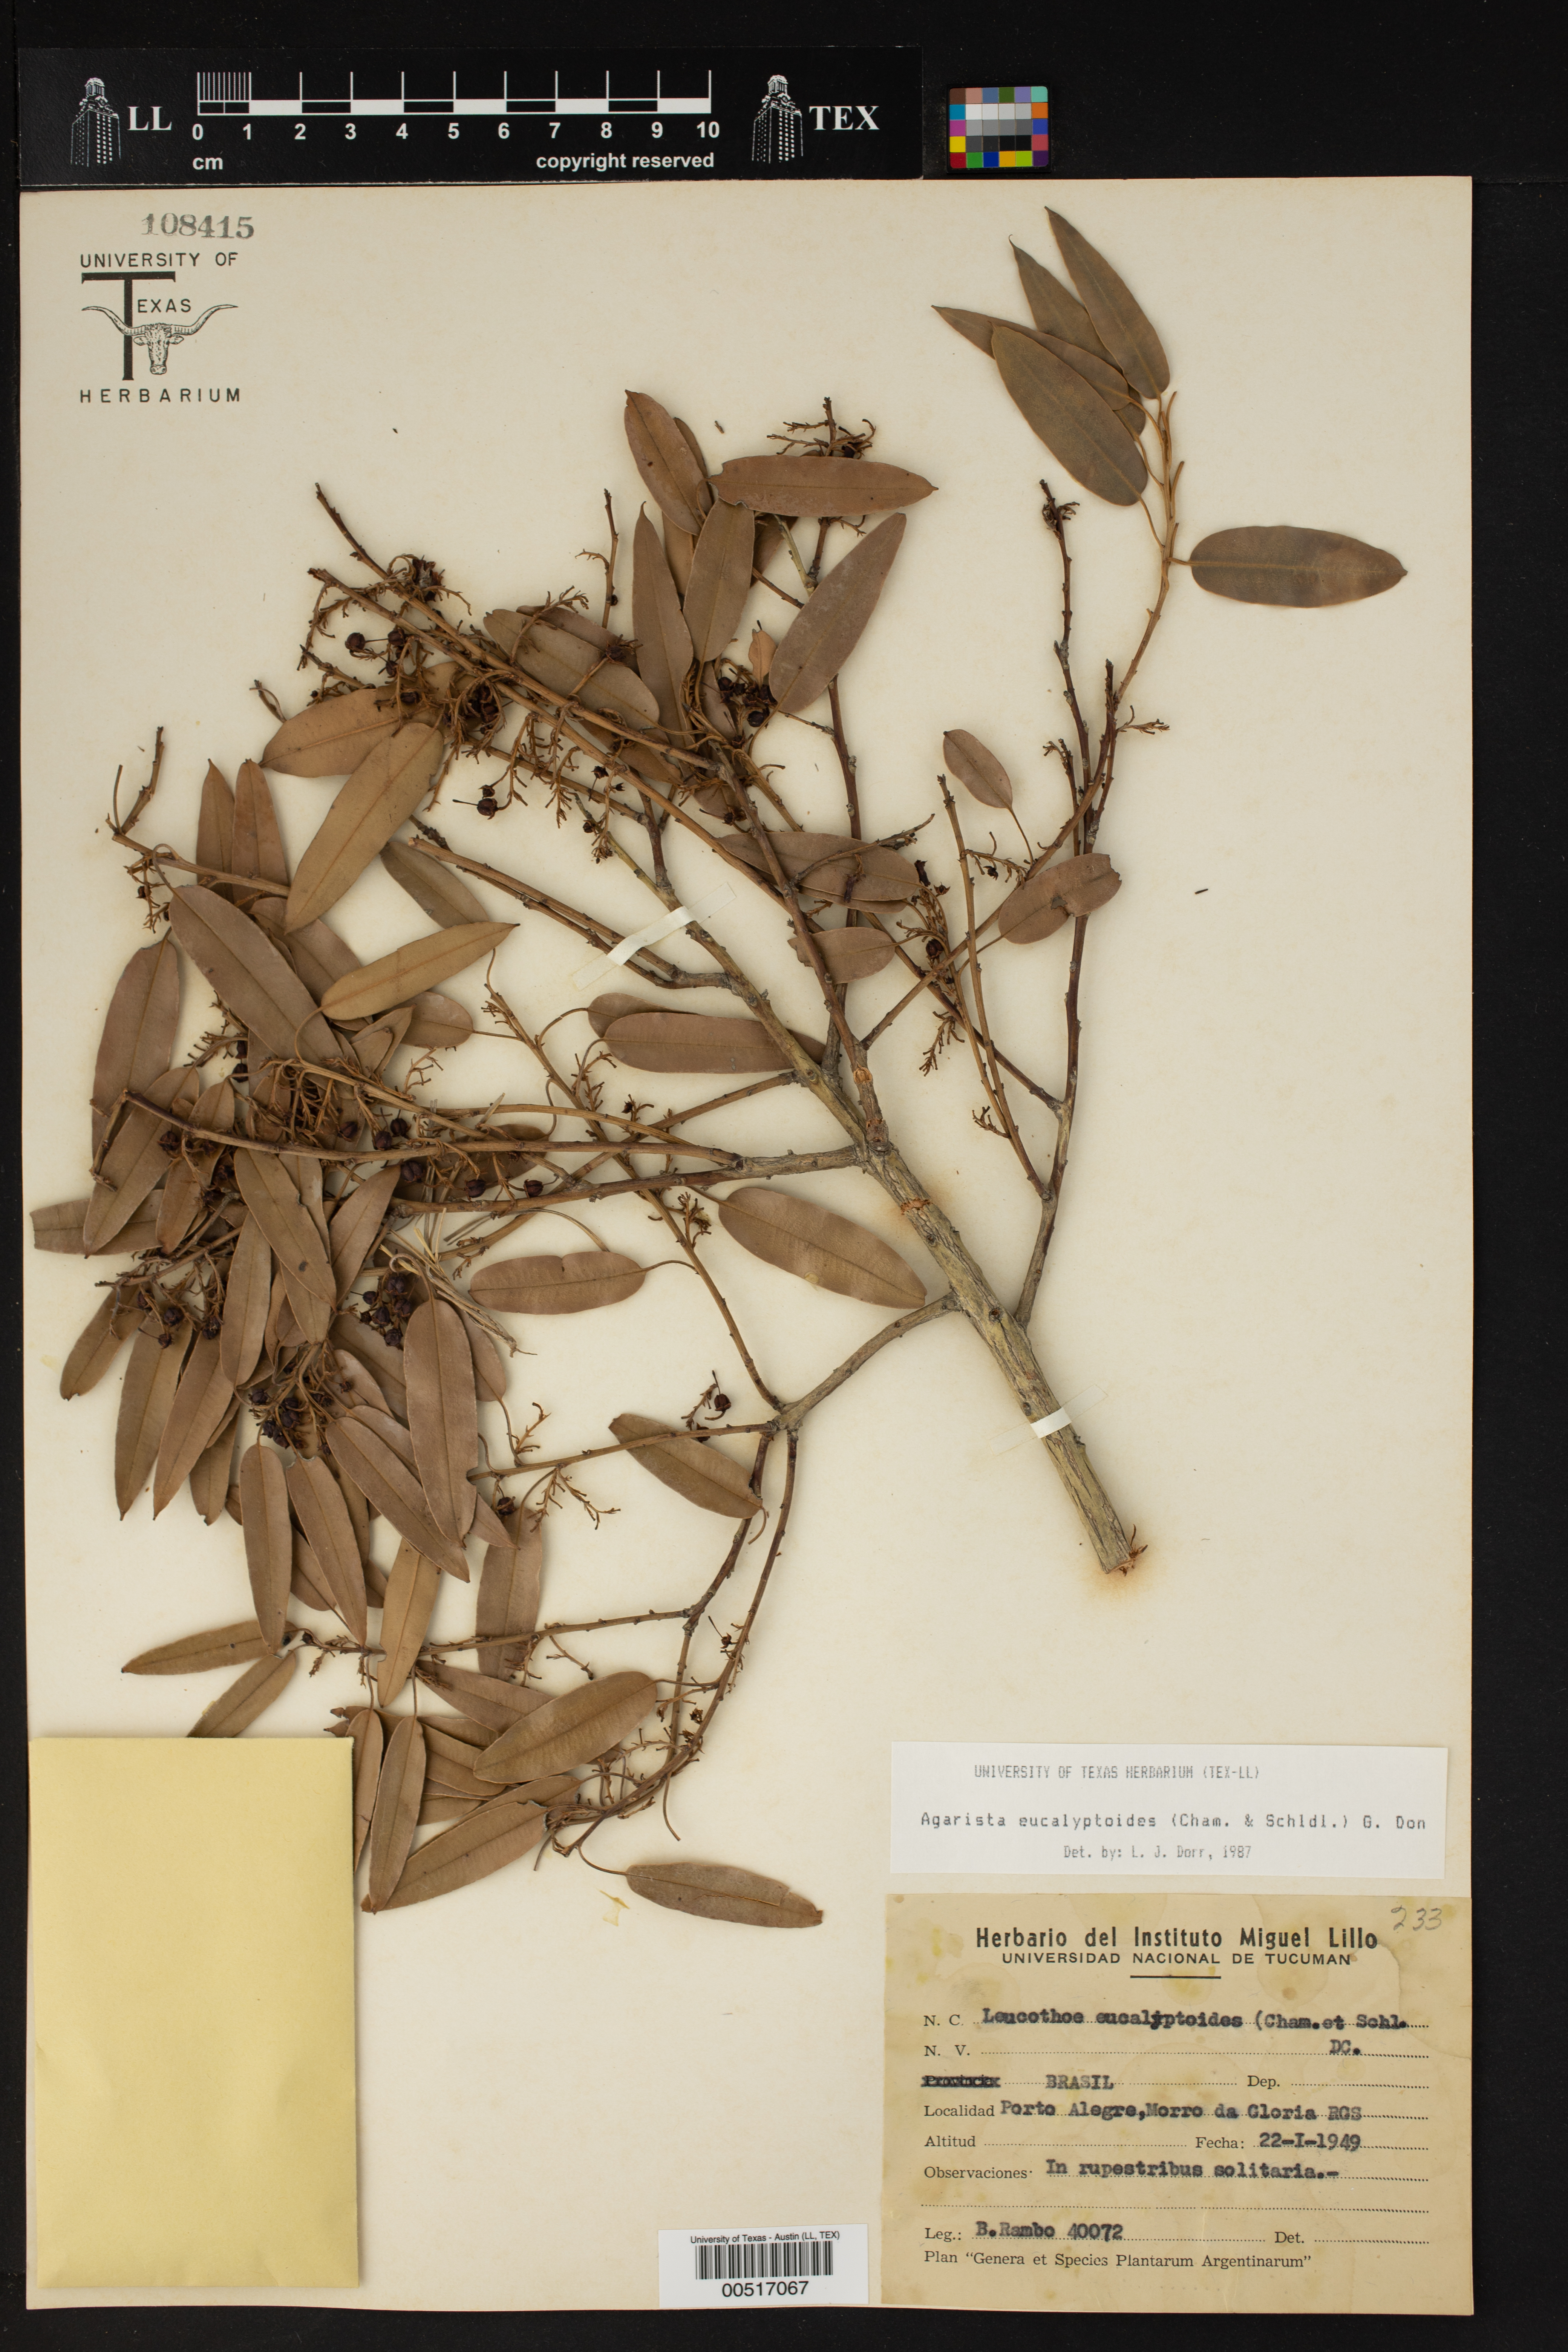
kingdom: Plantae
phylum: Tracheophyta
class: Magnoliopsida
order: Ericales
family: Ericaceae
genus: Agarista
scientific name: Agarista eucalyptoides
